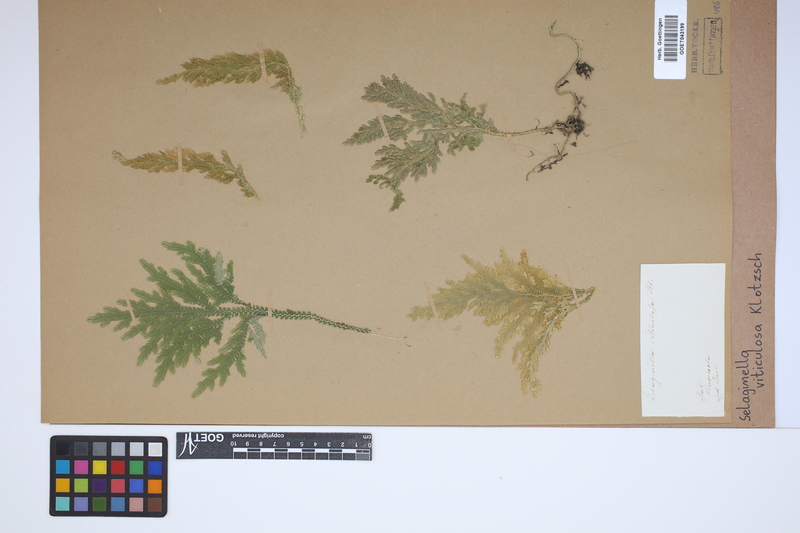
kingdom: Plantae
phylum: Tracheophyta
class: Lycopodiopsida
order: Selaginellales
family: Selaginellaceae
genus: Selaginella
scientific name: Selaginella viticulosa
